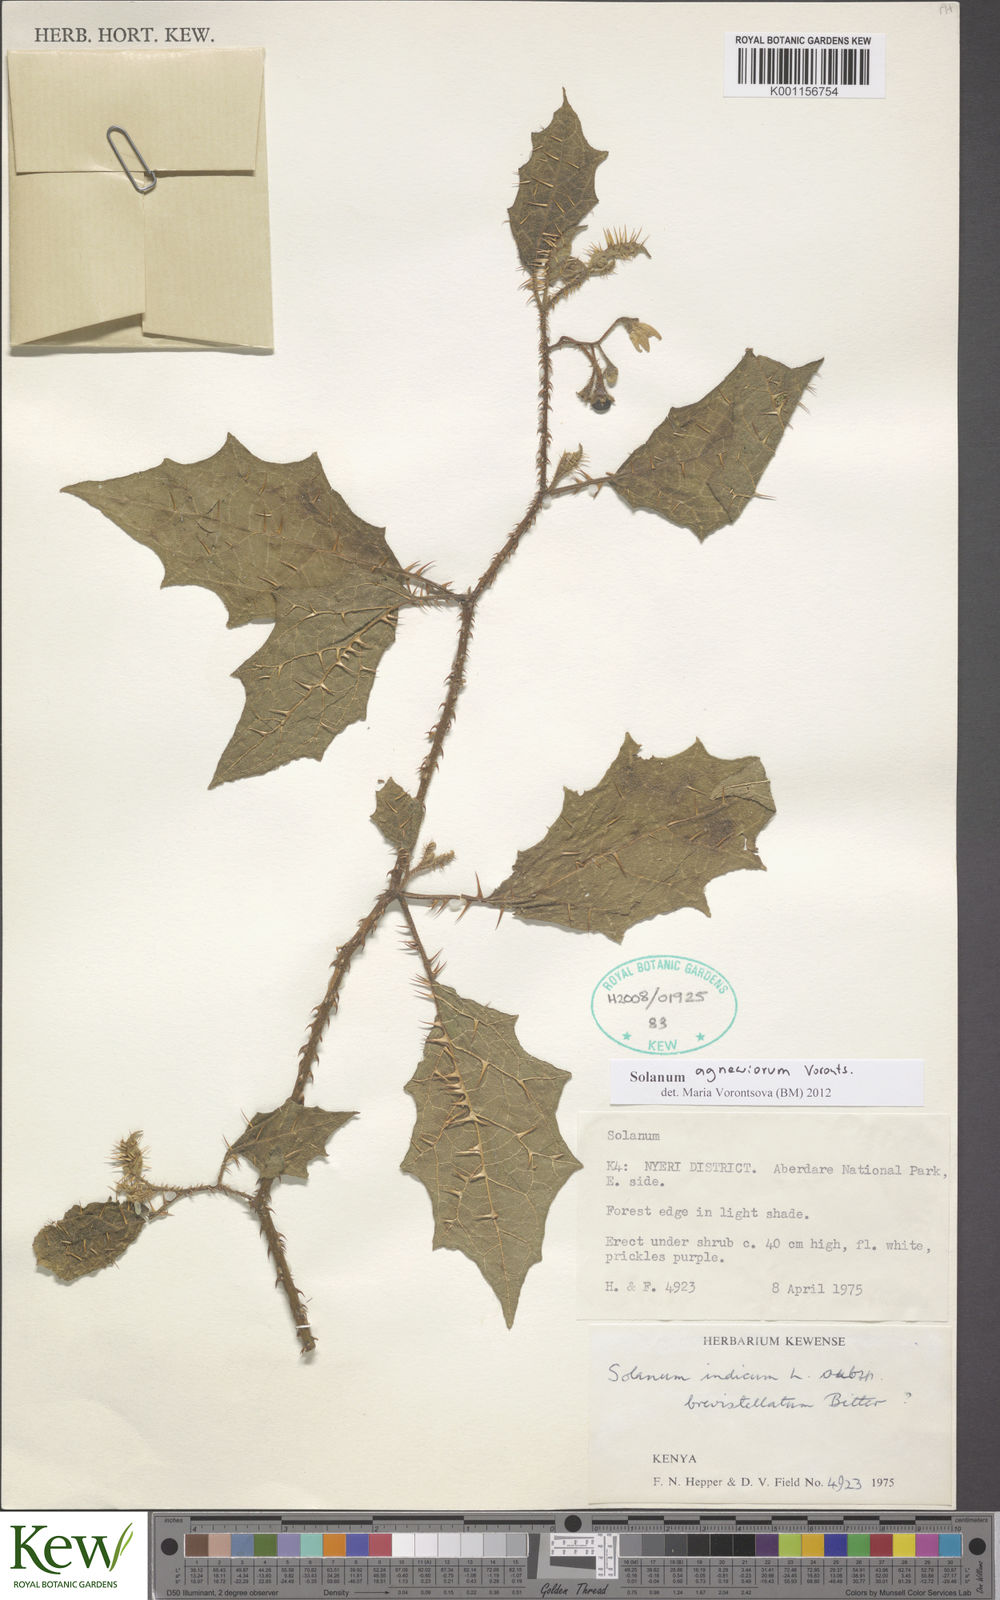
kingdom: Plantae
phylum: Tracheophyta
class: Magnoliopsida
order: Solanales
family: Solanaceae
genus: Solanum
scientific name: Solanum agnewiorum
